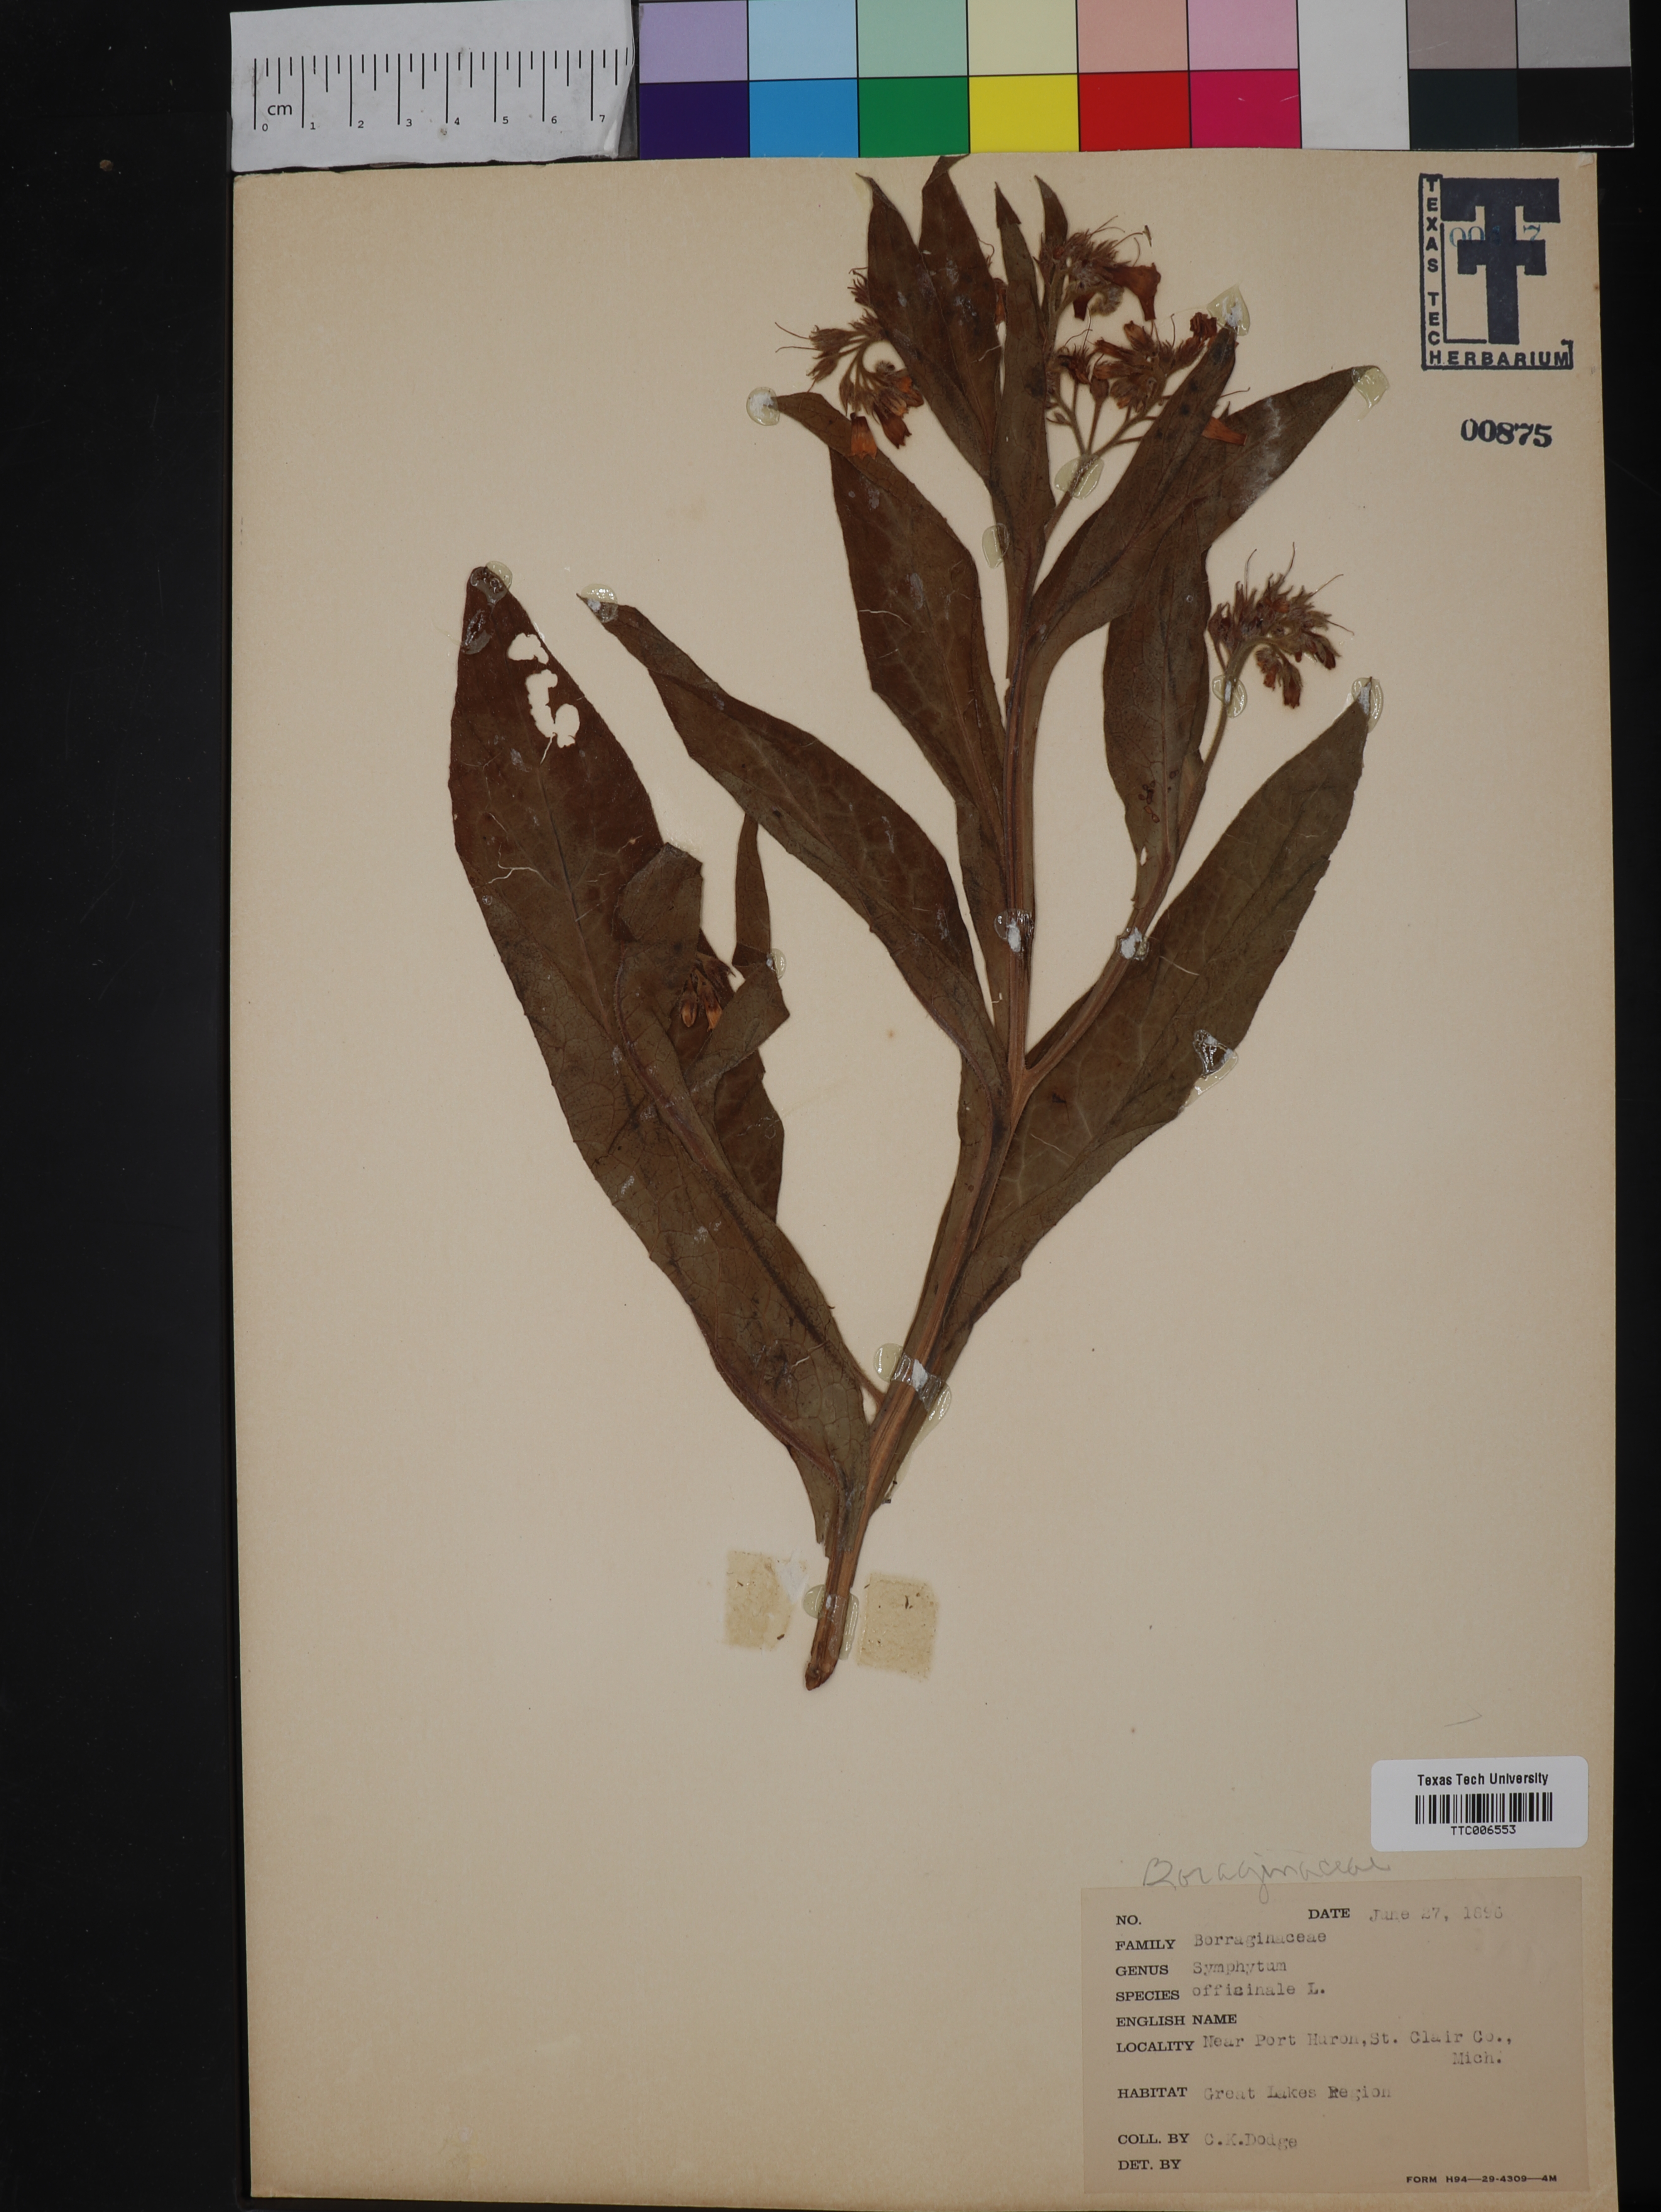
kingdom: Plantae
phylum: Tracheophyta
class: Magnoliopsida
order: Boraginales
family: Boraginaceae
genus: Symphytum
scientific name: Symphytum officinale
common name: Common comfrey
